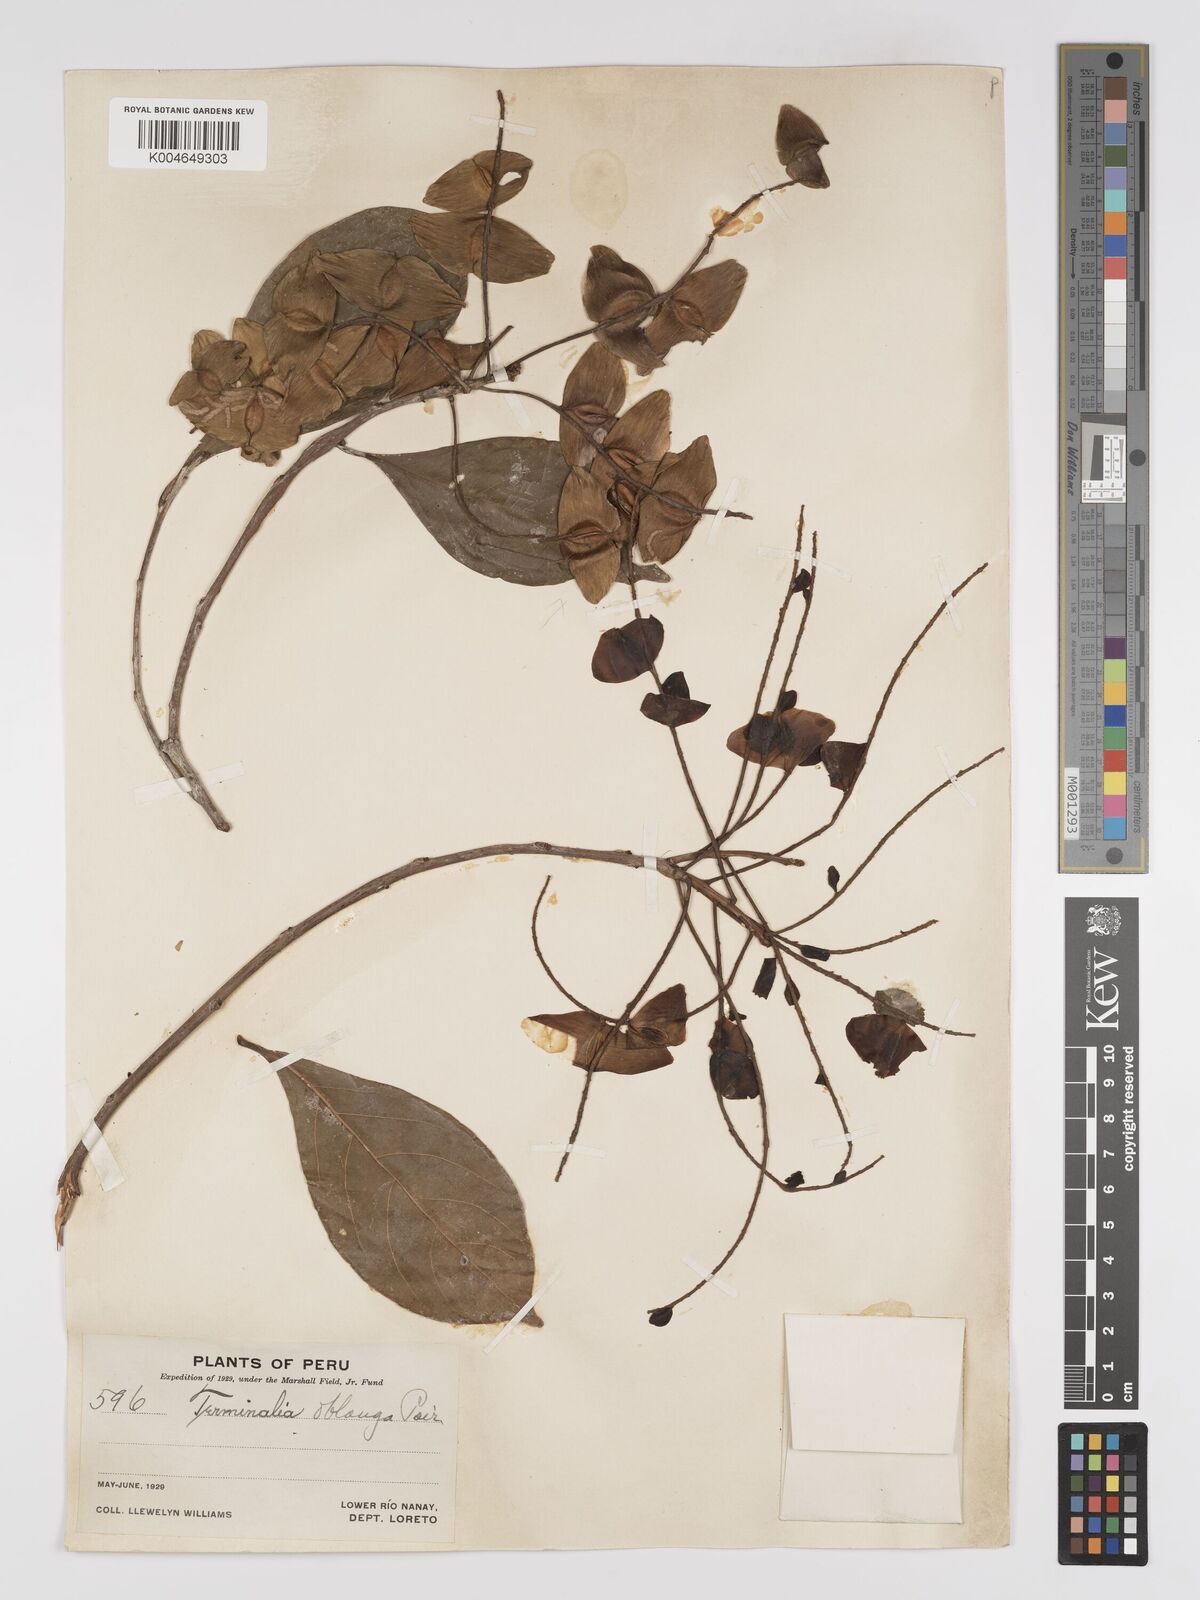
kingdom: Plantae
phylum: Tracheophyta
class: Magnoliopsida
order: Myrtales
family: Combretaceae
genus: Terminalia
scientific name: Terminalia oblonga
